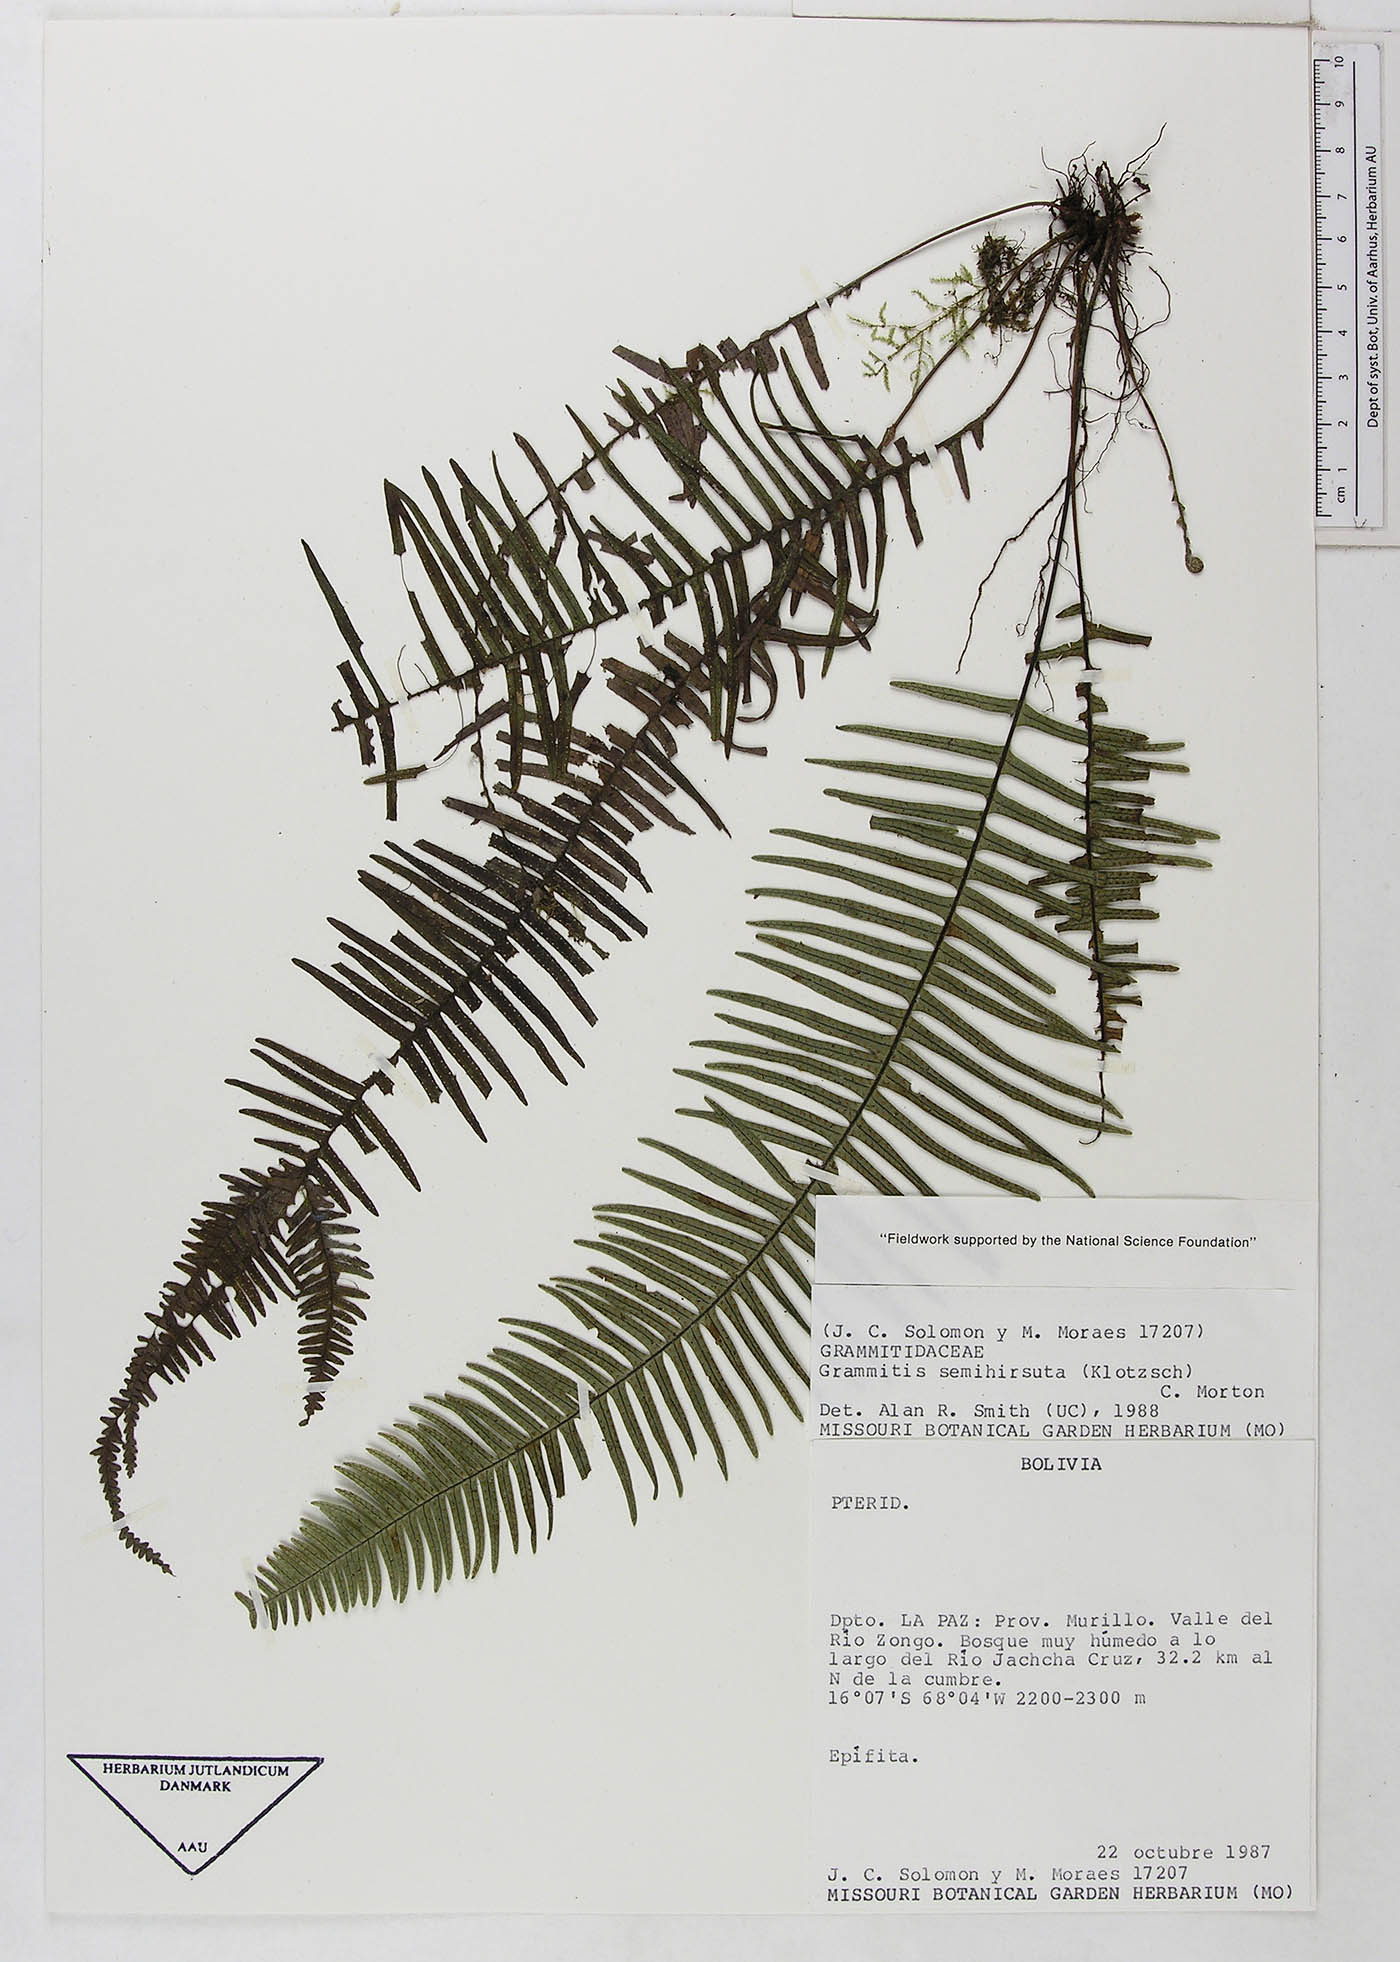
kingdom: Plantae
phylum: Tracheophyta
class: Polypodiopsida
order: Polypodiales
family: Polypodiaceae
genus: Mycopteris
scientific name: Mycopteris semihirsuta
